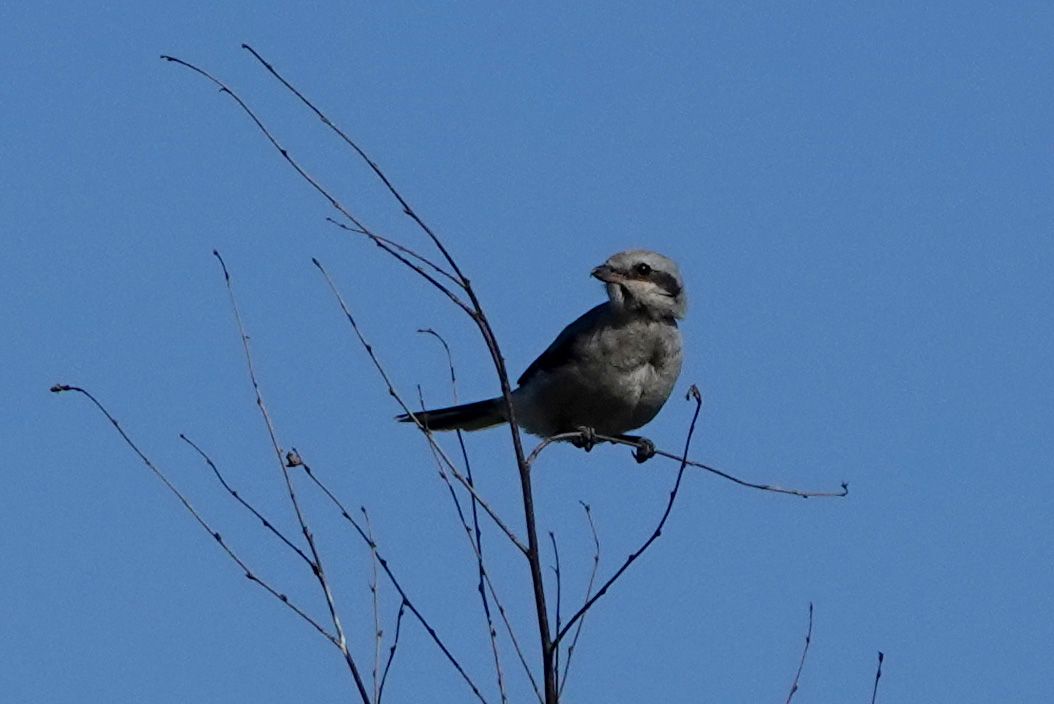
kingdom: Animalia
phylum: Chordata
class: Aves
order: Passeriformes
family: Laniidae
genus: Lanius
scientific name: Lanius excubitor
